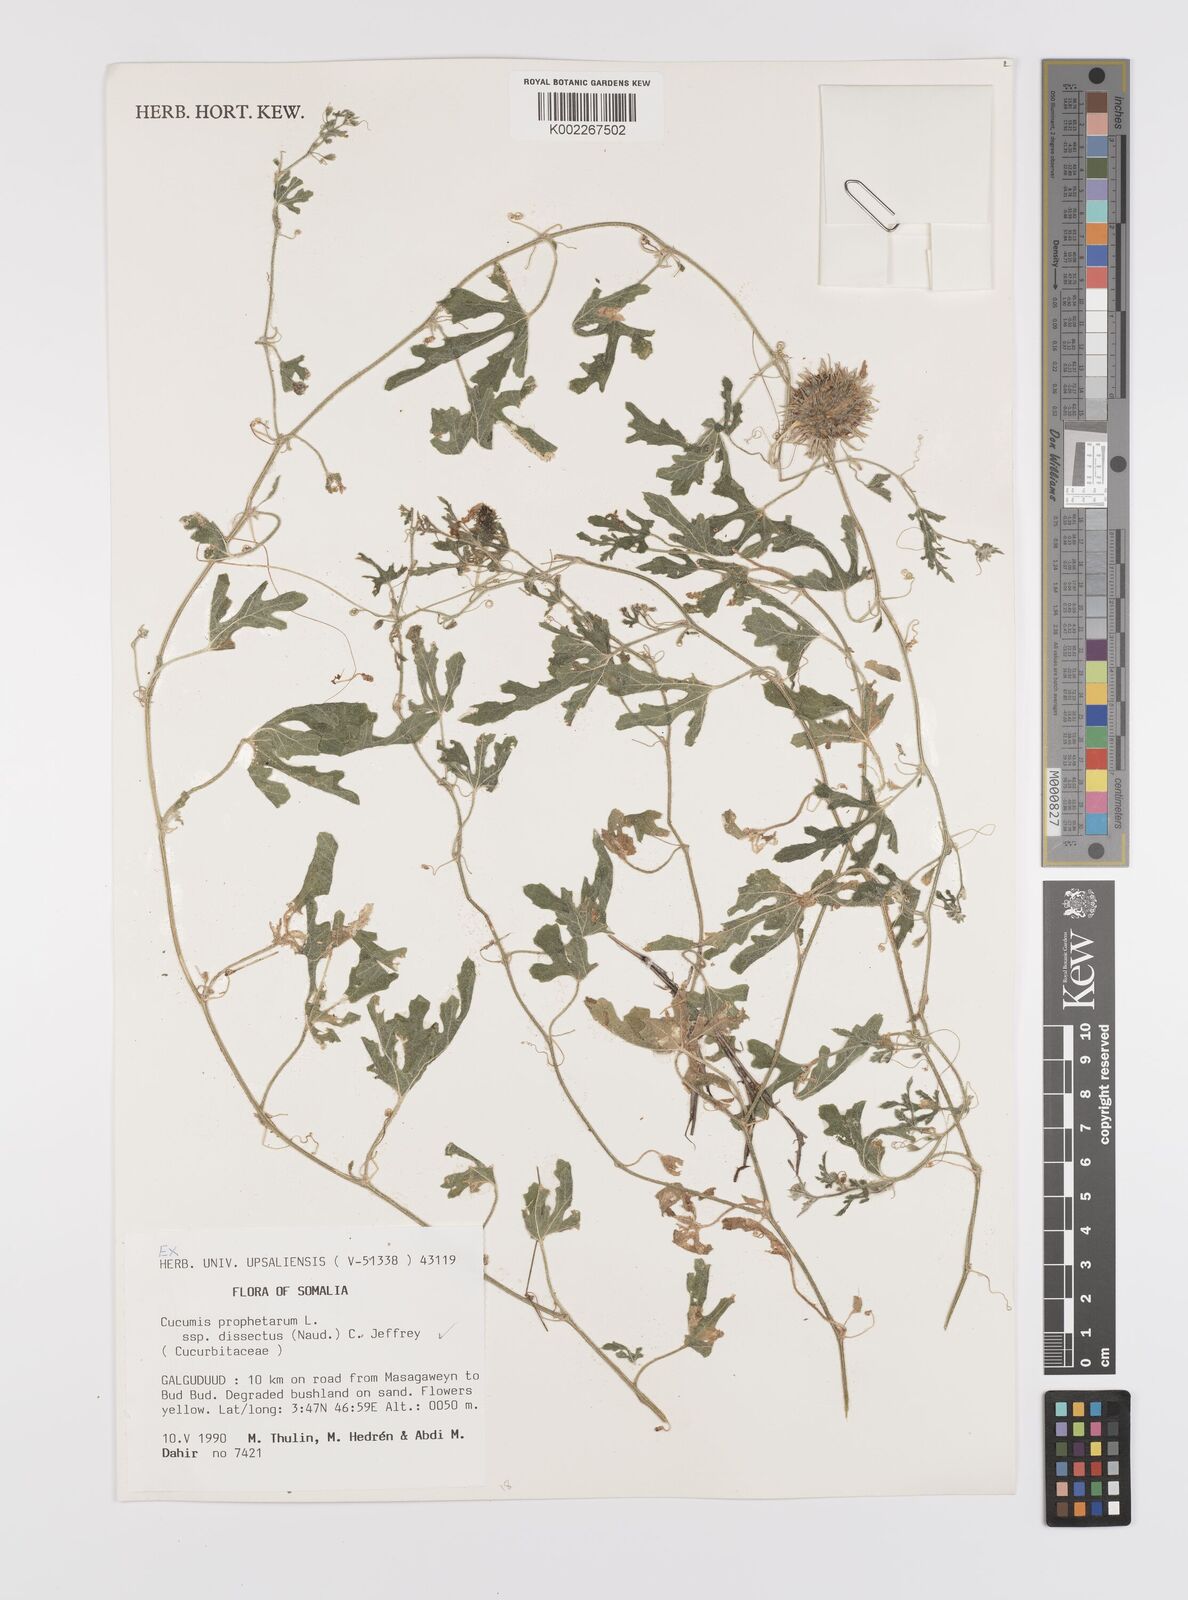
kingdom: Plantae
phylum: Tracheophyta
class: Magnoliopsida
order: Cucurbitales
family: Cucurbitaceae
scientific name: Cucurbitaceae
